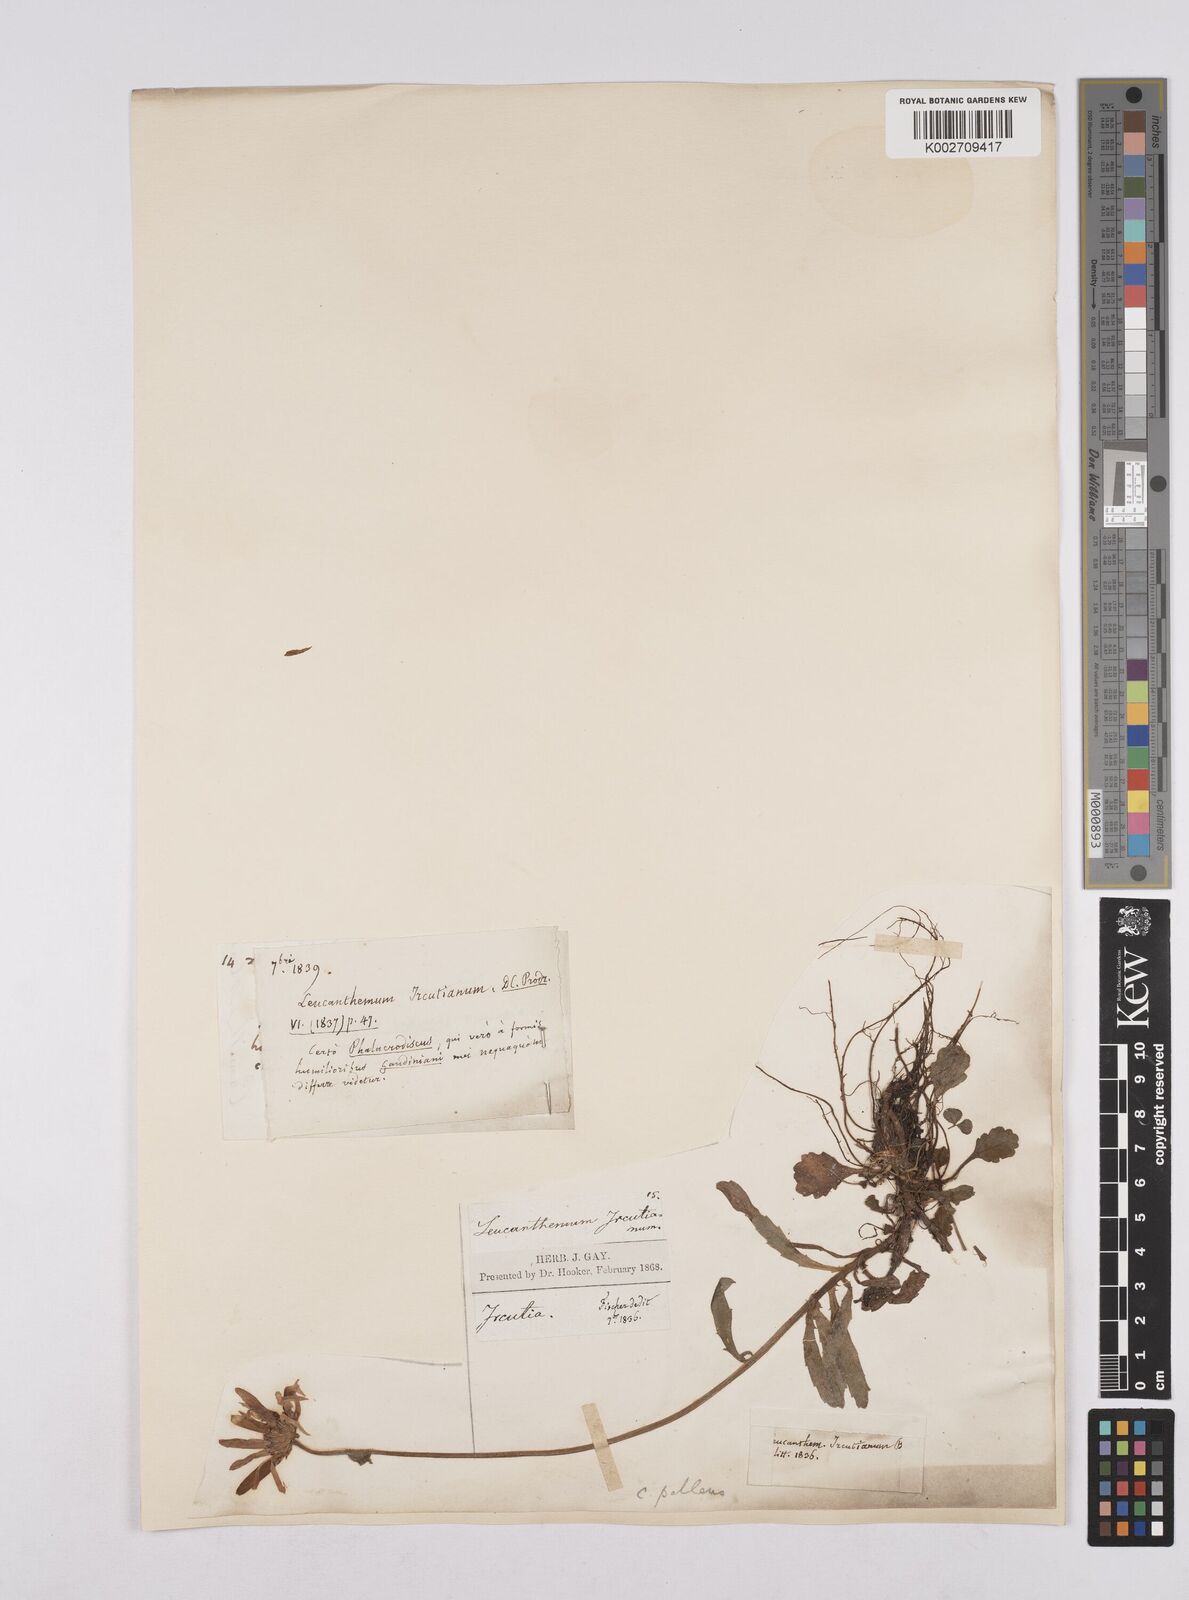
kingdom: Plantae
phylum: Tracheophyta
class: Magnoliopsida
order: Asterales
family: Asteraceae
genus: Leucanthemum
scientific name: Leucanthemum vulgare
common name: Oxeye daisy
